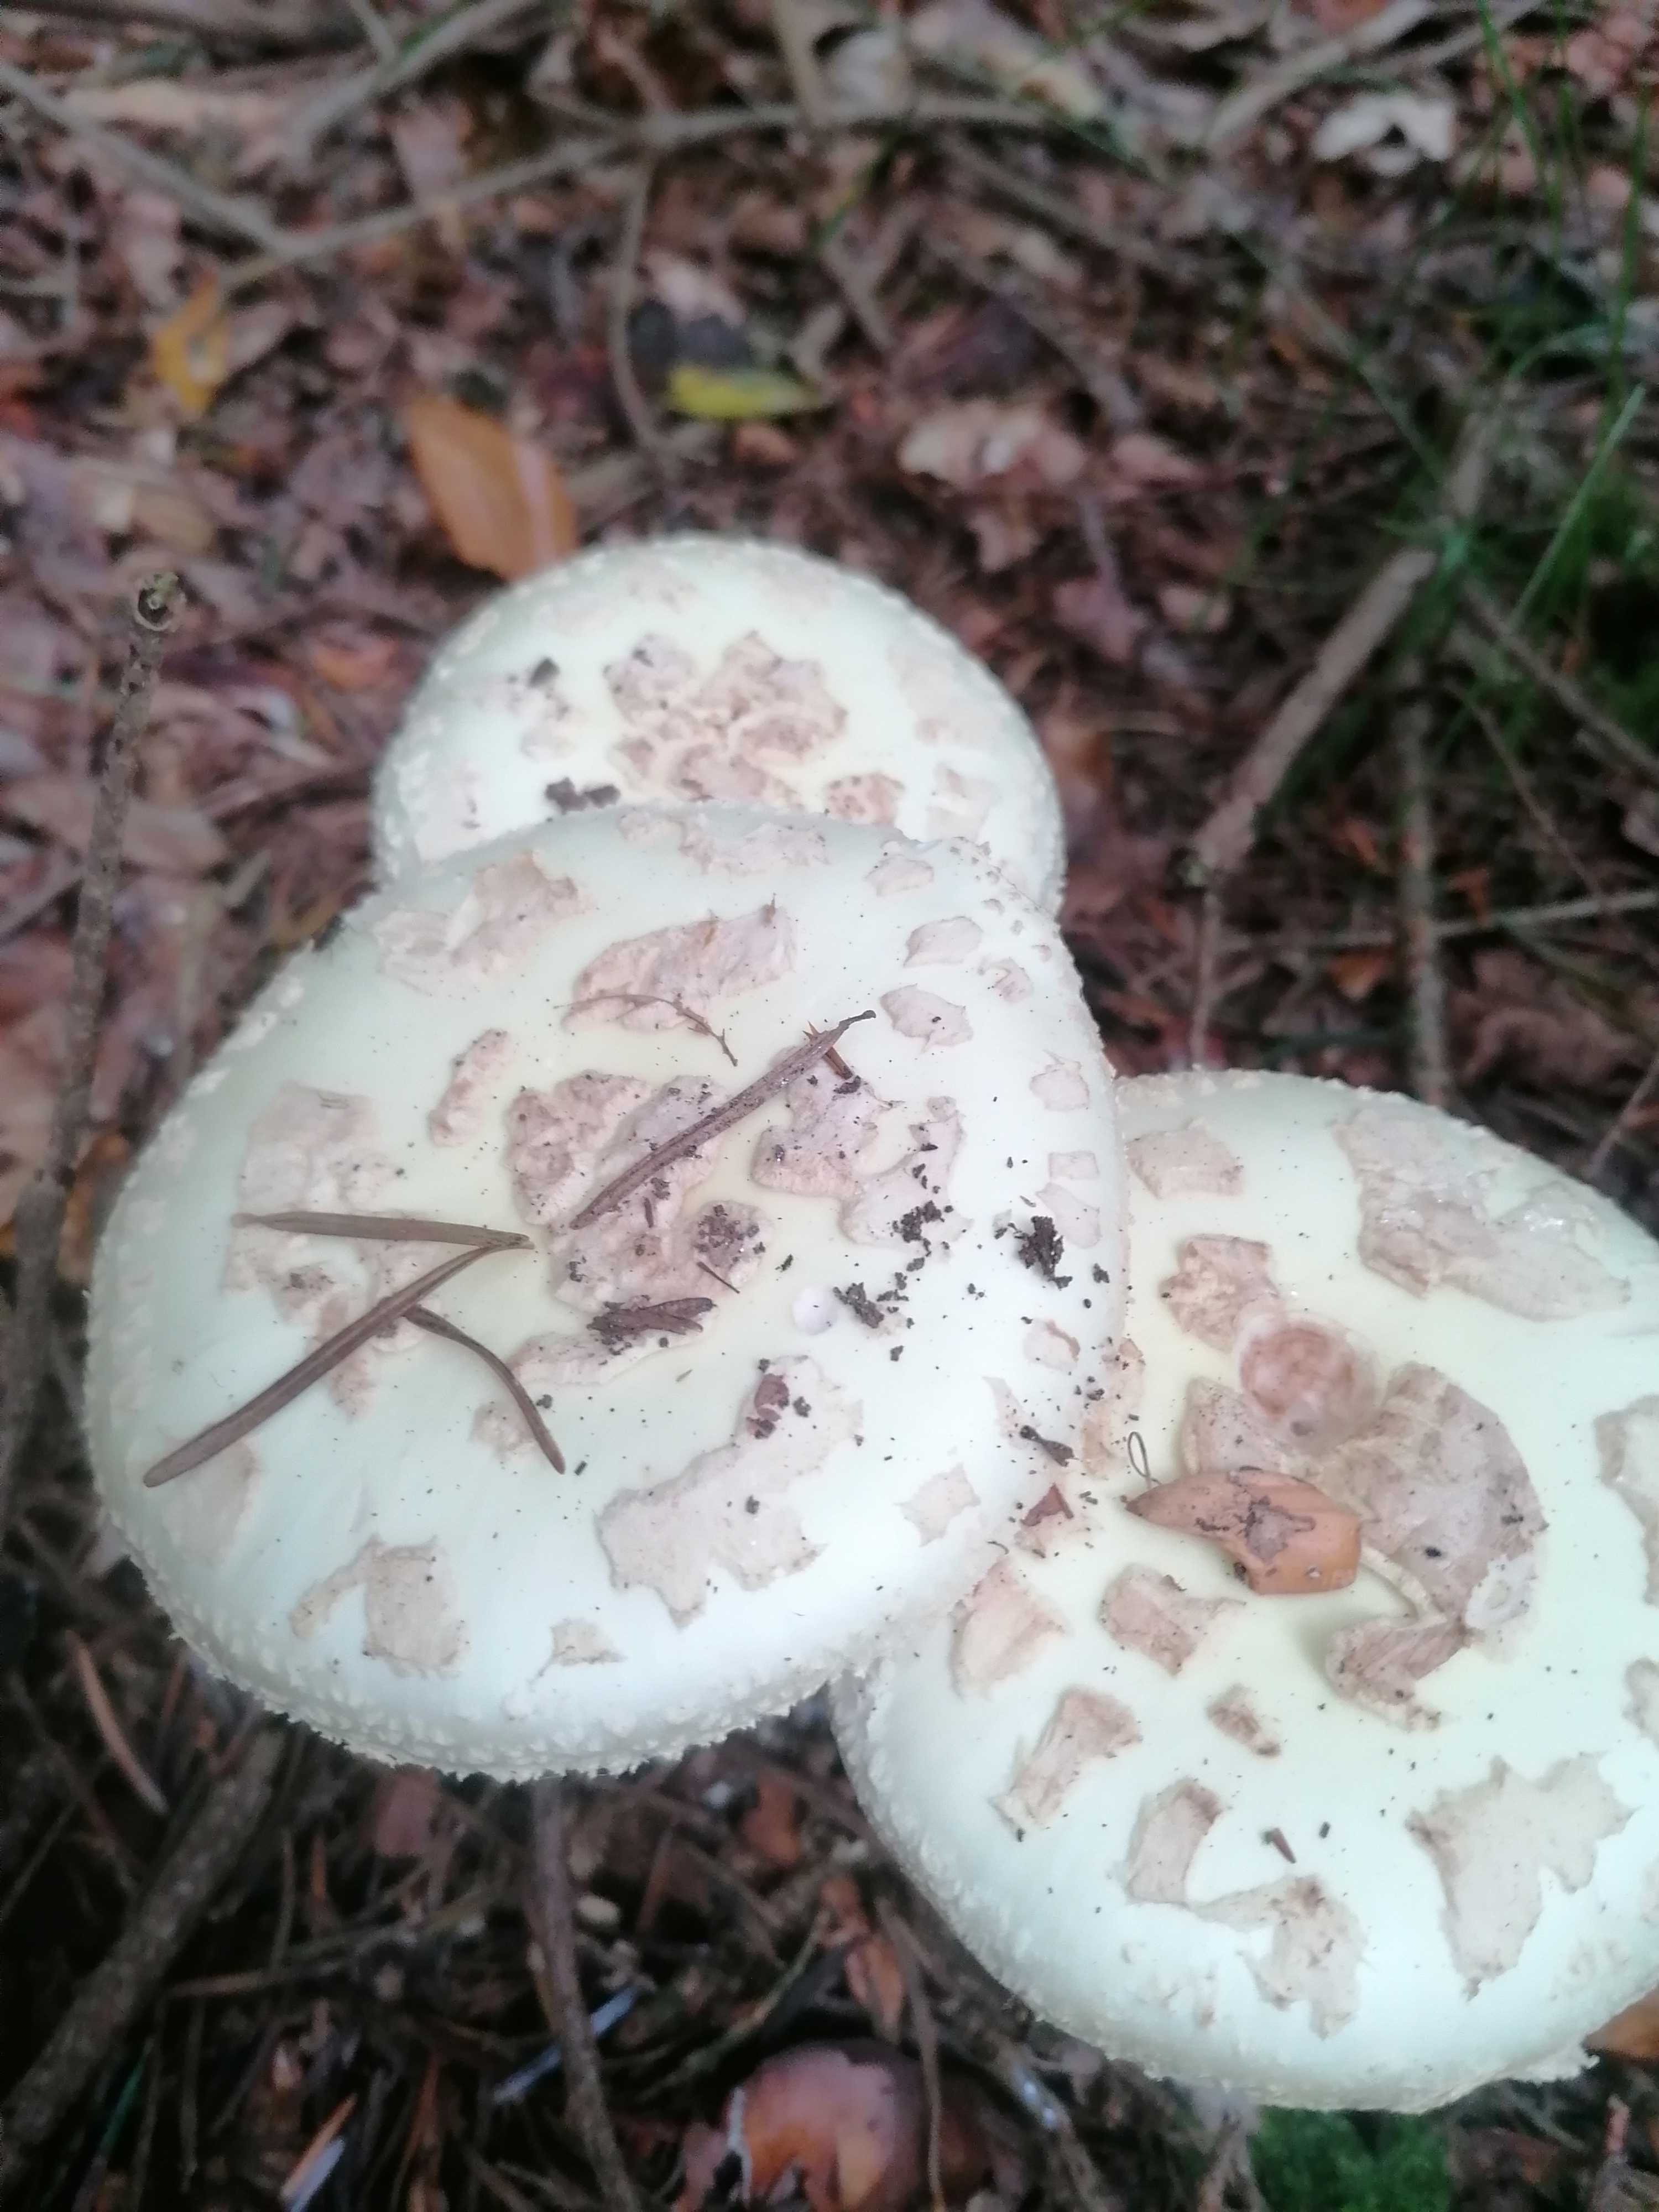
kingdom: Fungi
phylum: Basidiomycota
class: Agaricomycetes
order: Agaricales
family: Amanitaceae
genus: Amanita
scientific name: Amanita citrina
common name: kugleknoldet fluesvamp
